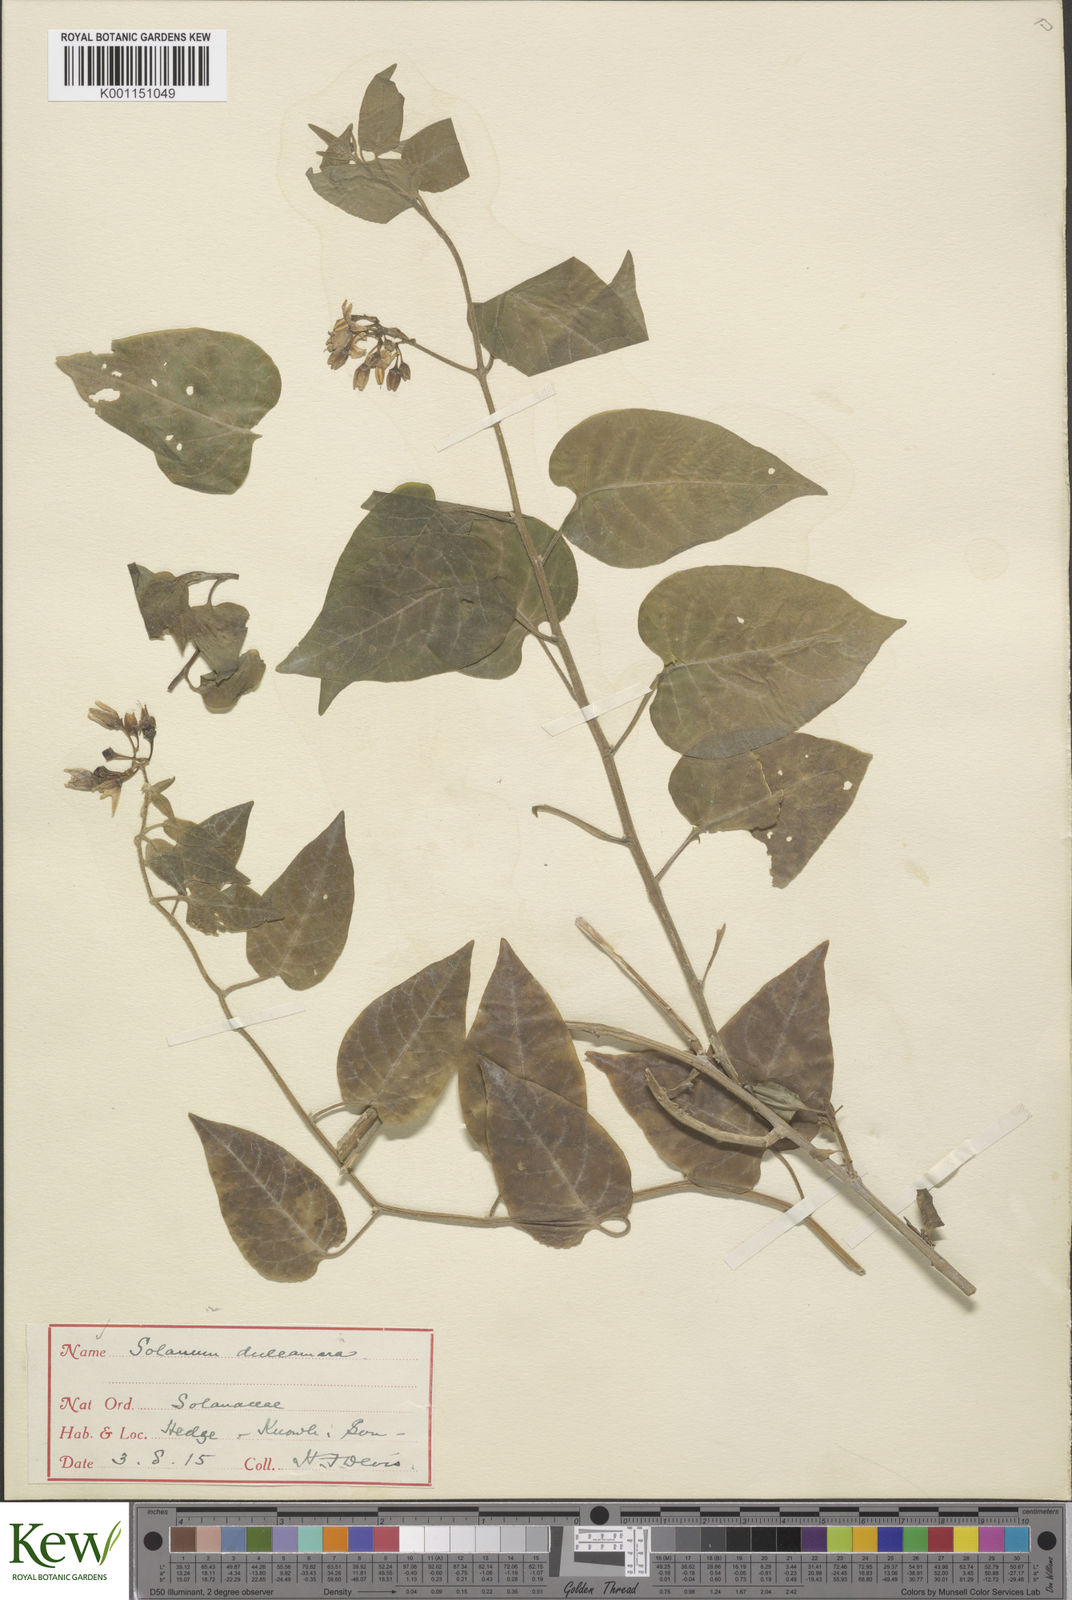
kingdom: Plantae
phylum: Tracheophyta
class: Magnoliopsida
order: Solanales
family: Solanaceae
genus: Solanum
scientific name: Solanum dulcamara
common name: Climbing nightshade
